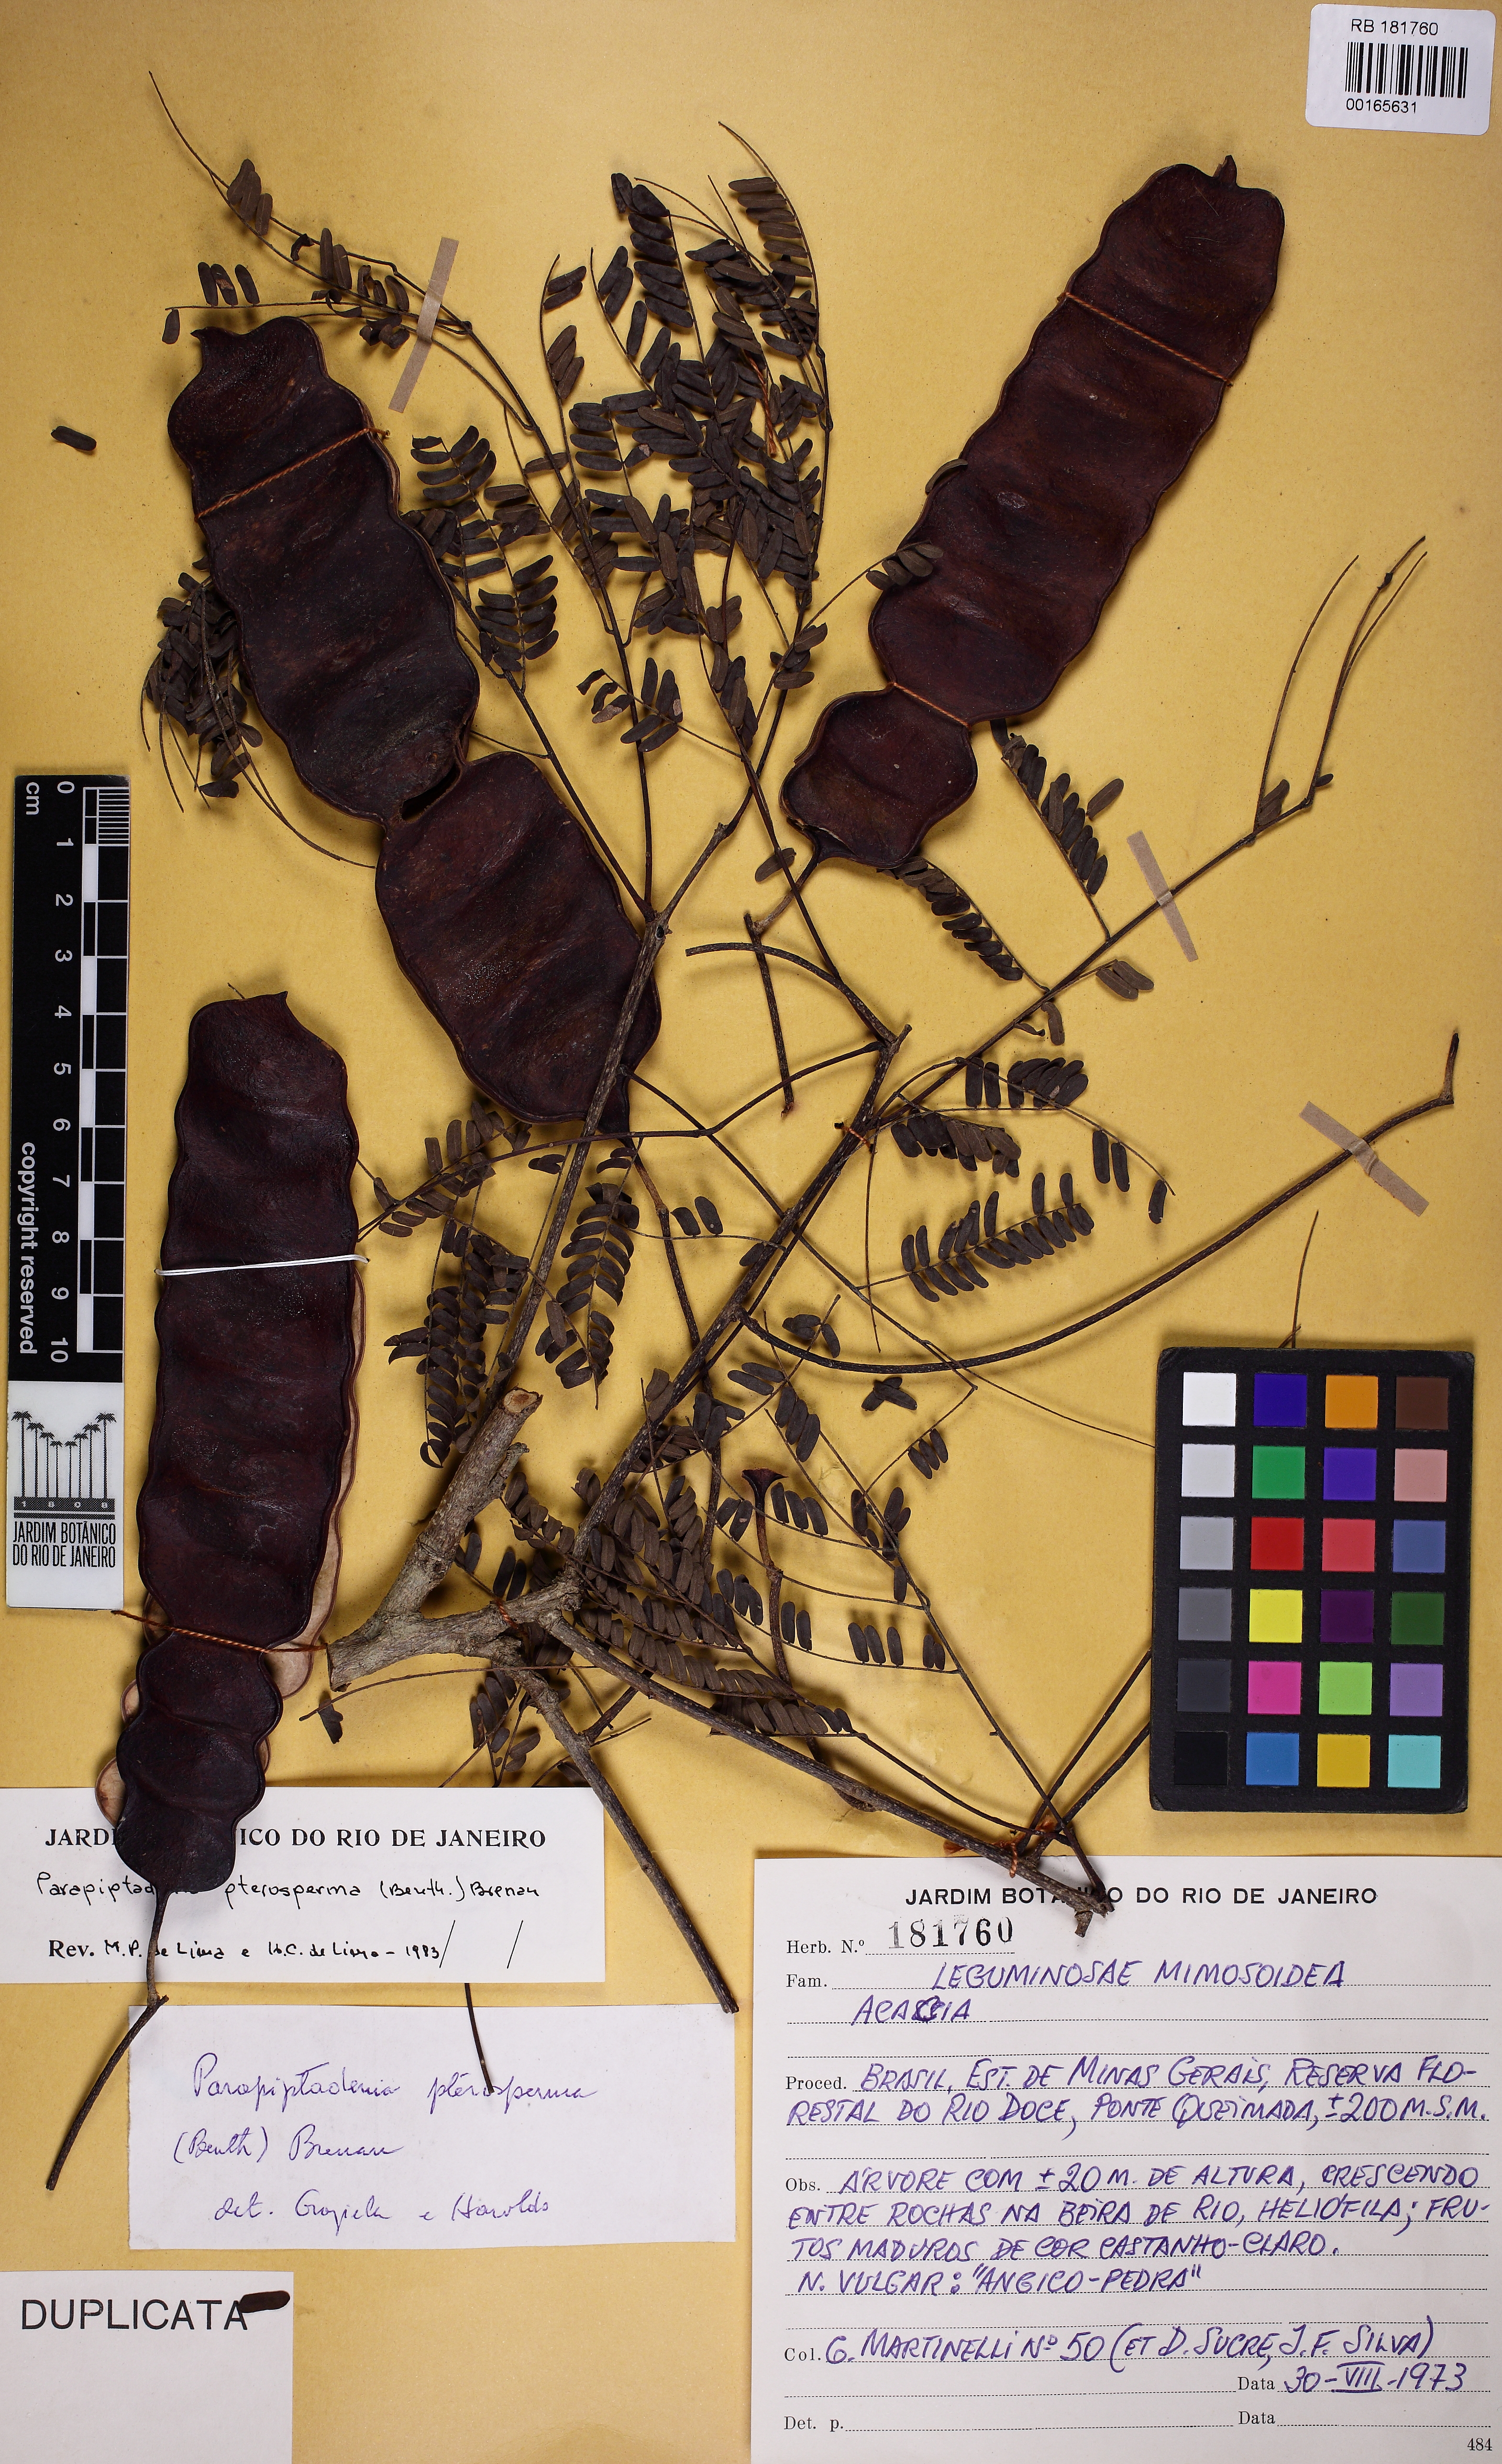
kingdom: Plantae
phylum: Tracheophyta
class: Magnoliopsida
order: Fabales
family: Fabaceae
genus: Parapiptadenia
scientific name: Parapiptadenia pterosperma
